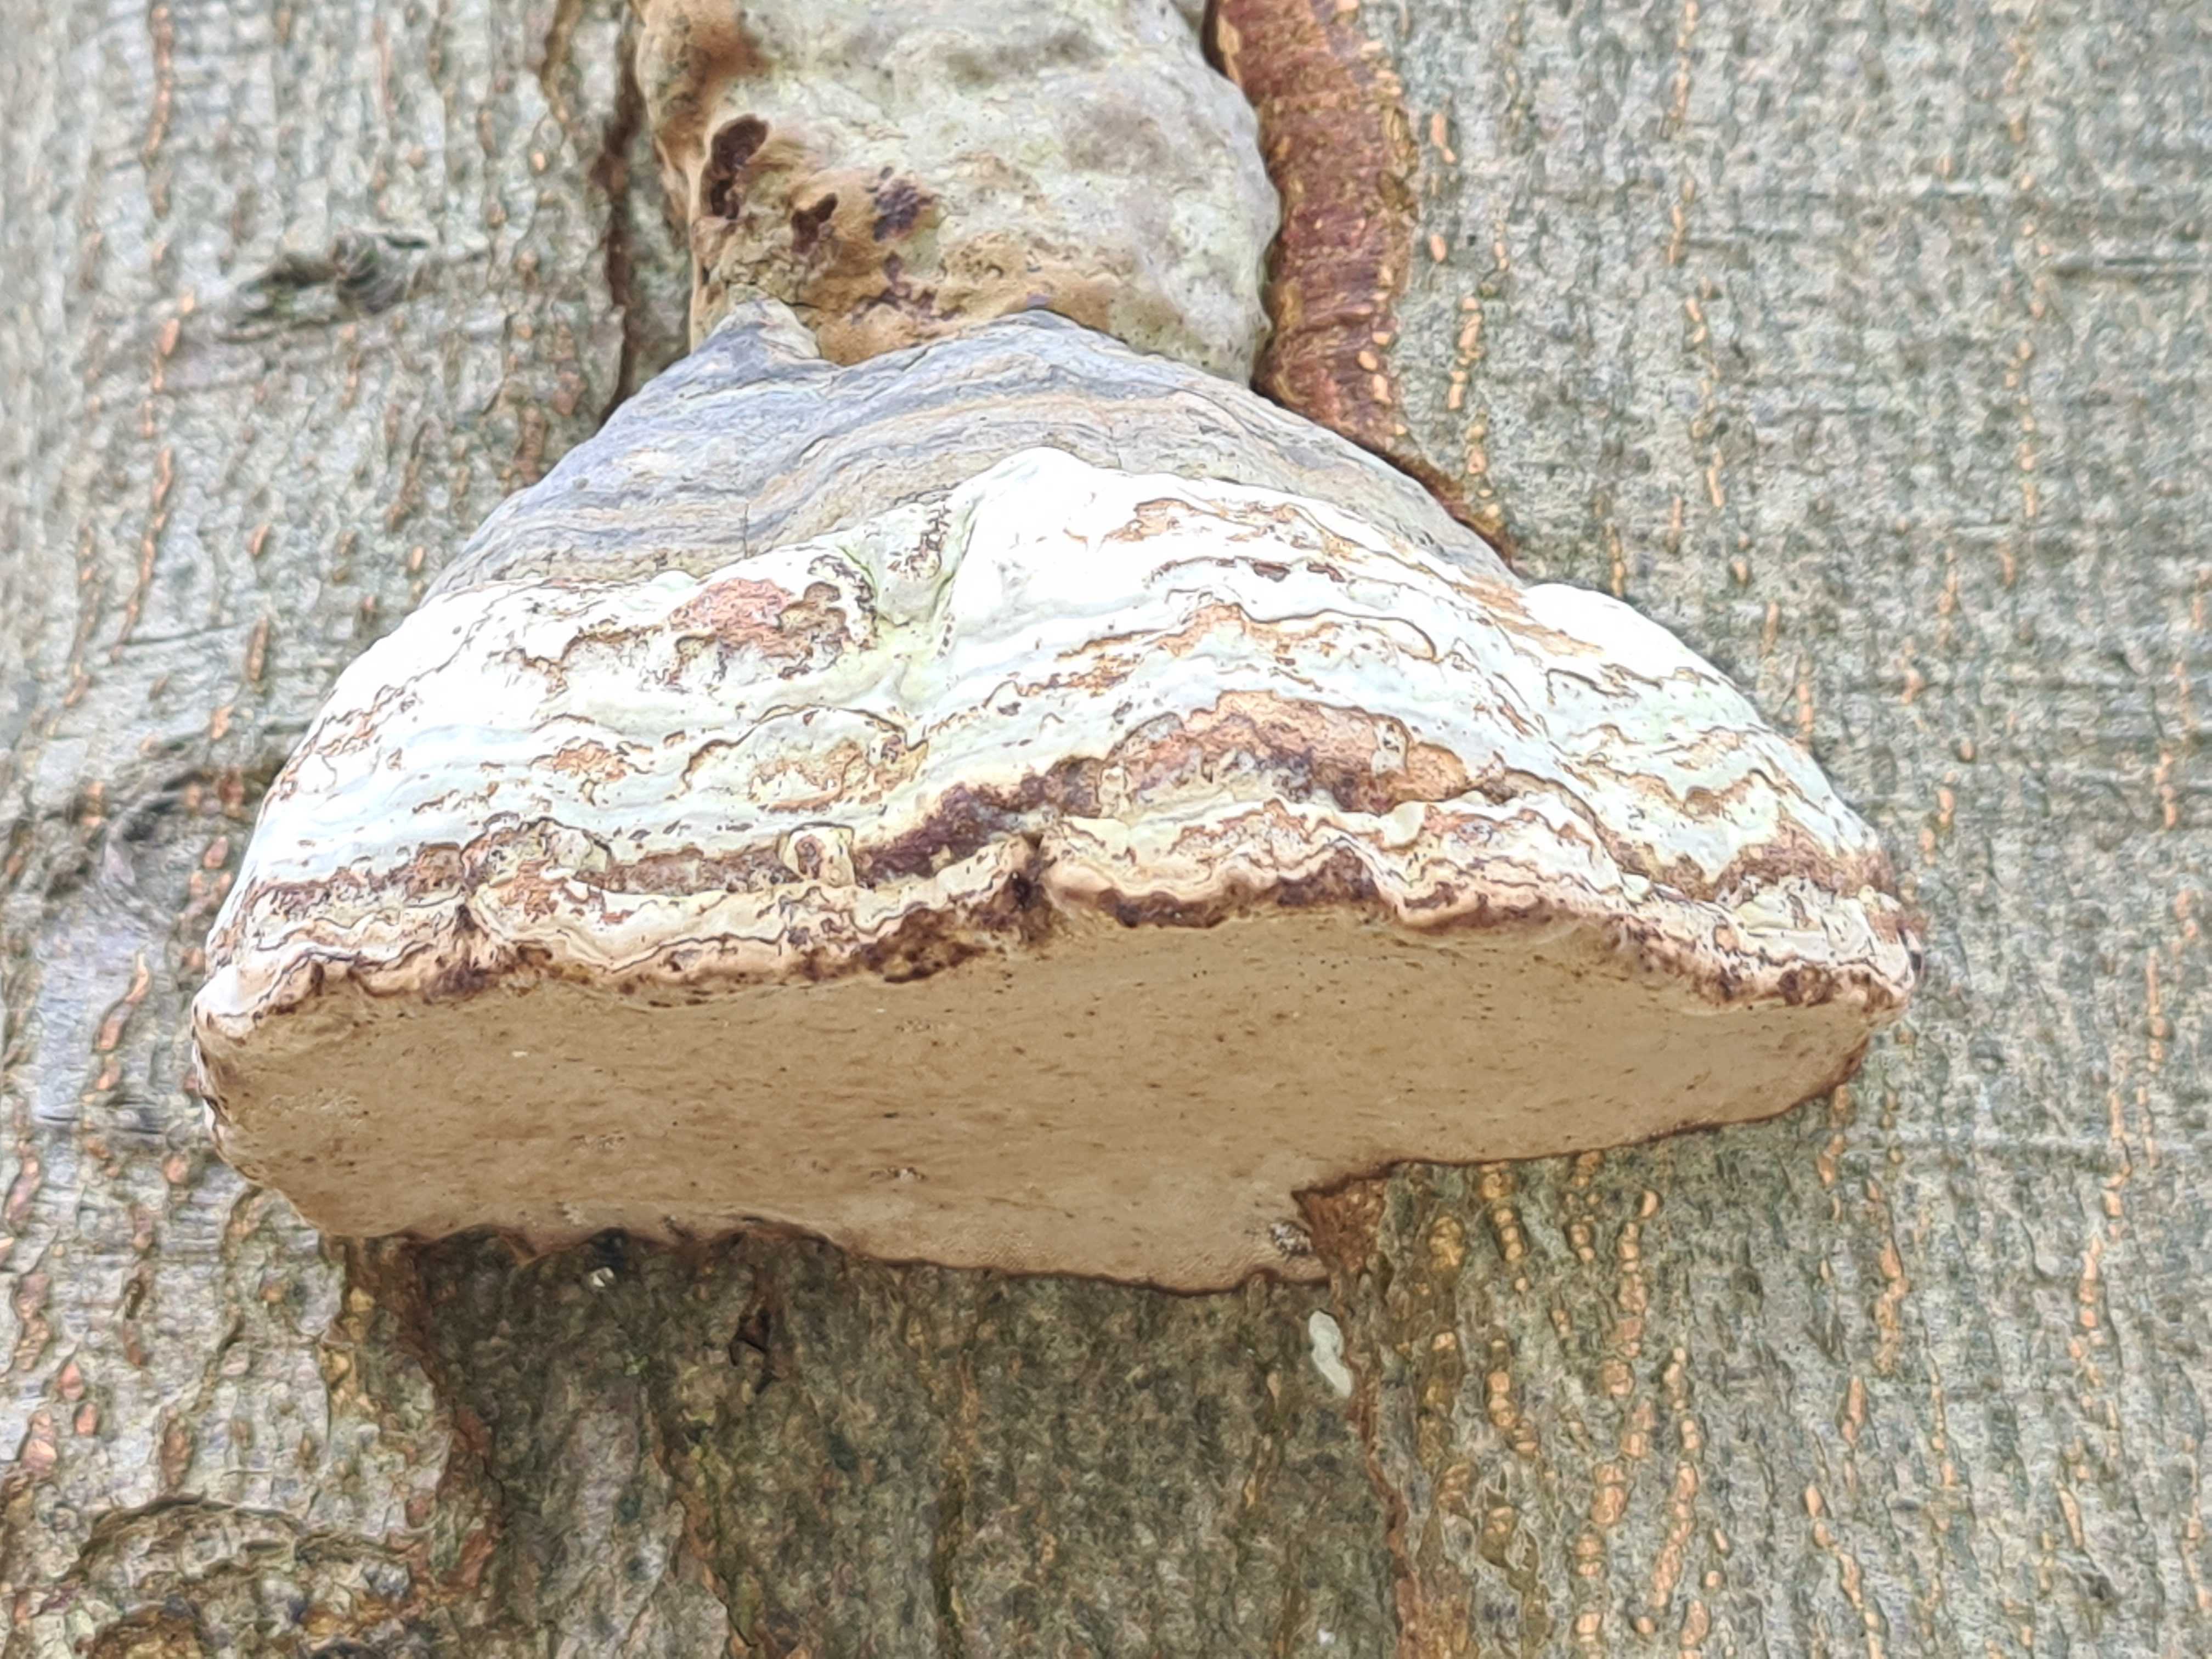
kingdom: Fungi
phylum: Basidiomycota
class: Agaricomycetes
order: Polyporales
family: Polyporaceae
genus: Fomes
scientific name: Fomes fomentarius
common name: tøndersvamp
